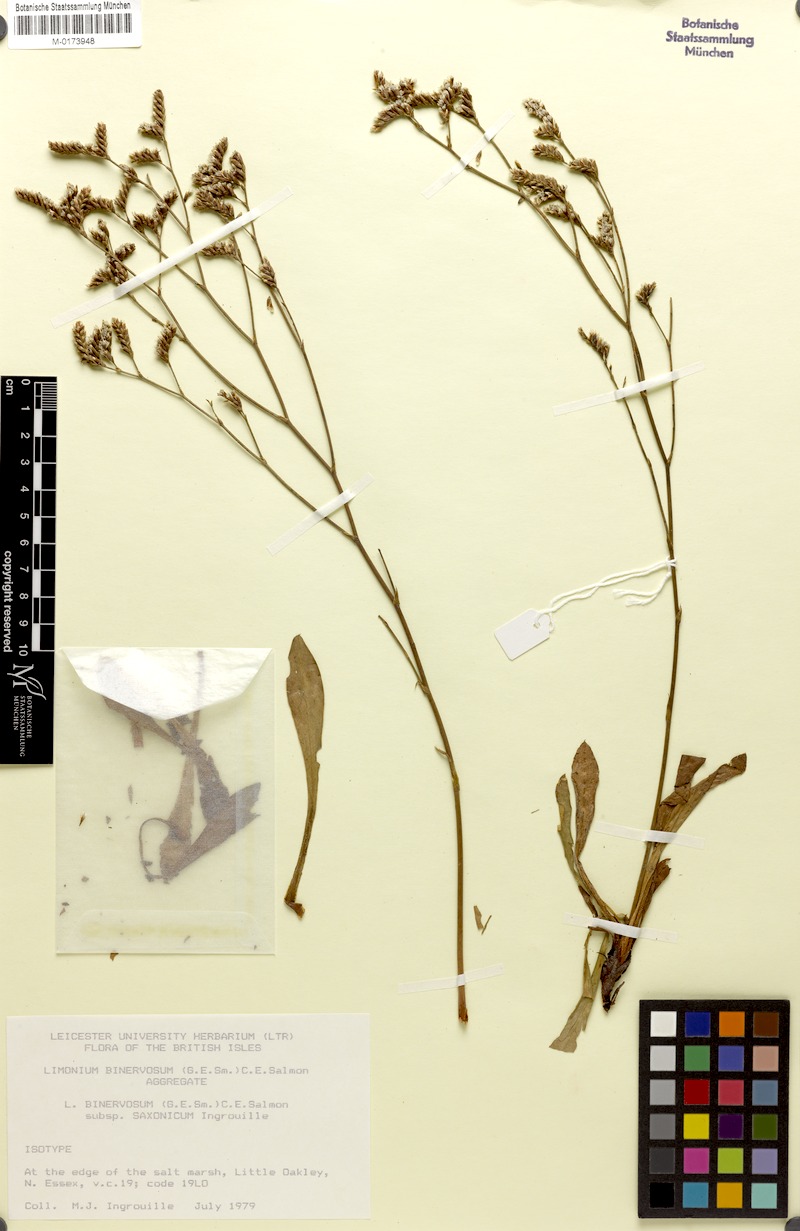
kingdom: Plantae
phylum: Tracheophyta
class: Magnoliopsida
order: Caryophyllales
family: Plumbaginaceae
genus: Limonium
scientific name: Limonium binervosum
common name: Rock sea-lavender
